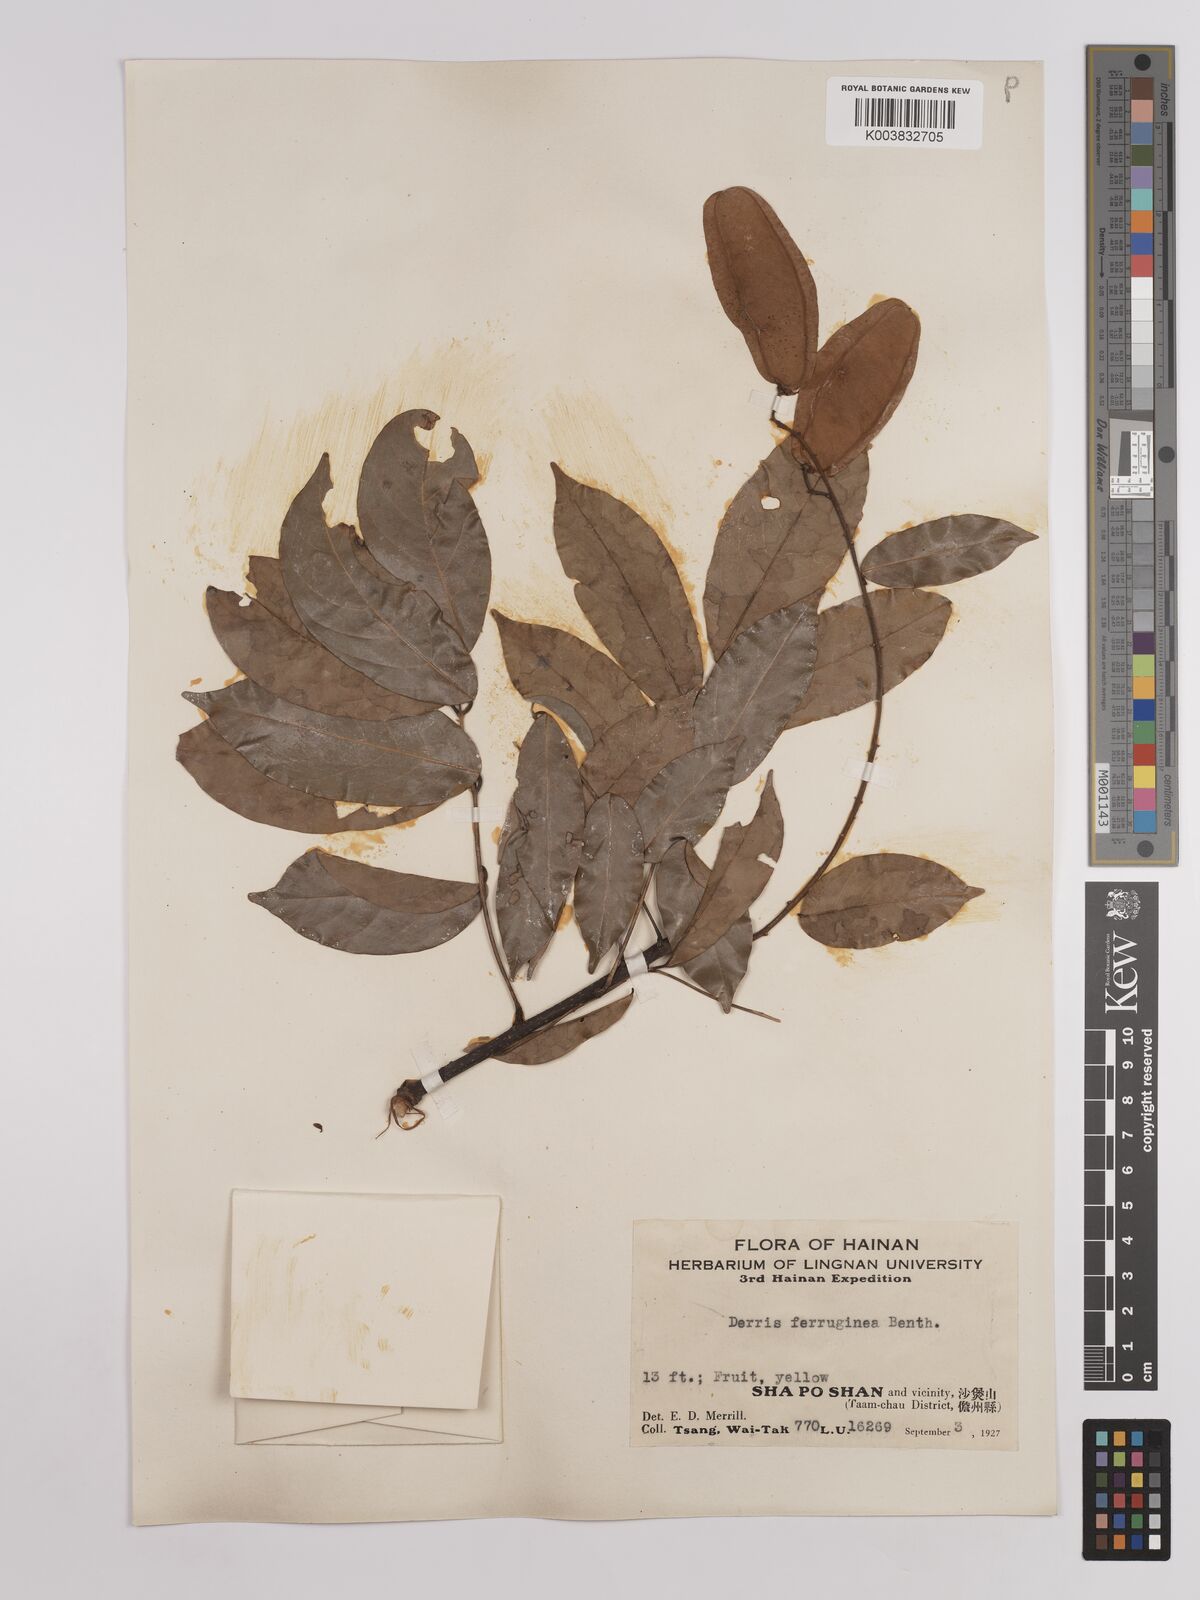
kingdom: Plantae
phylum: Tracheophyta
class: Magnoliopsida
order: Fabales
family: Fabaceae
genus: Derris
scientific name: Derris ferruginea
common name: Indian tubaroot
